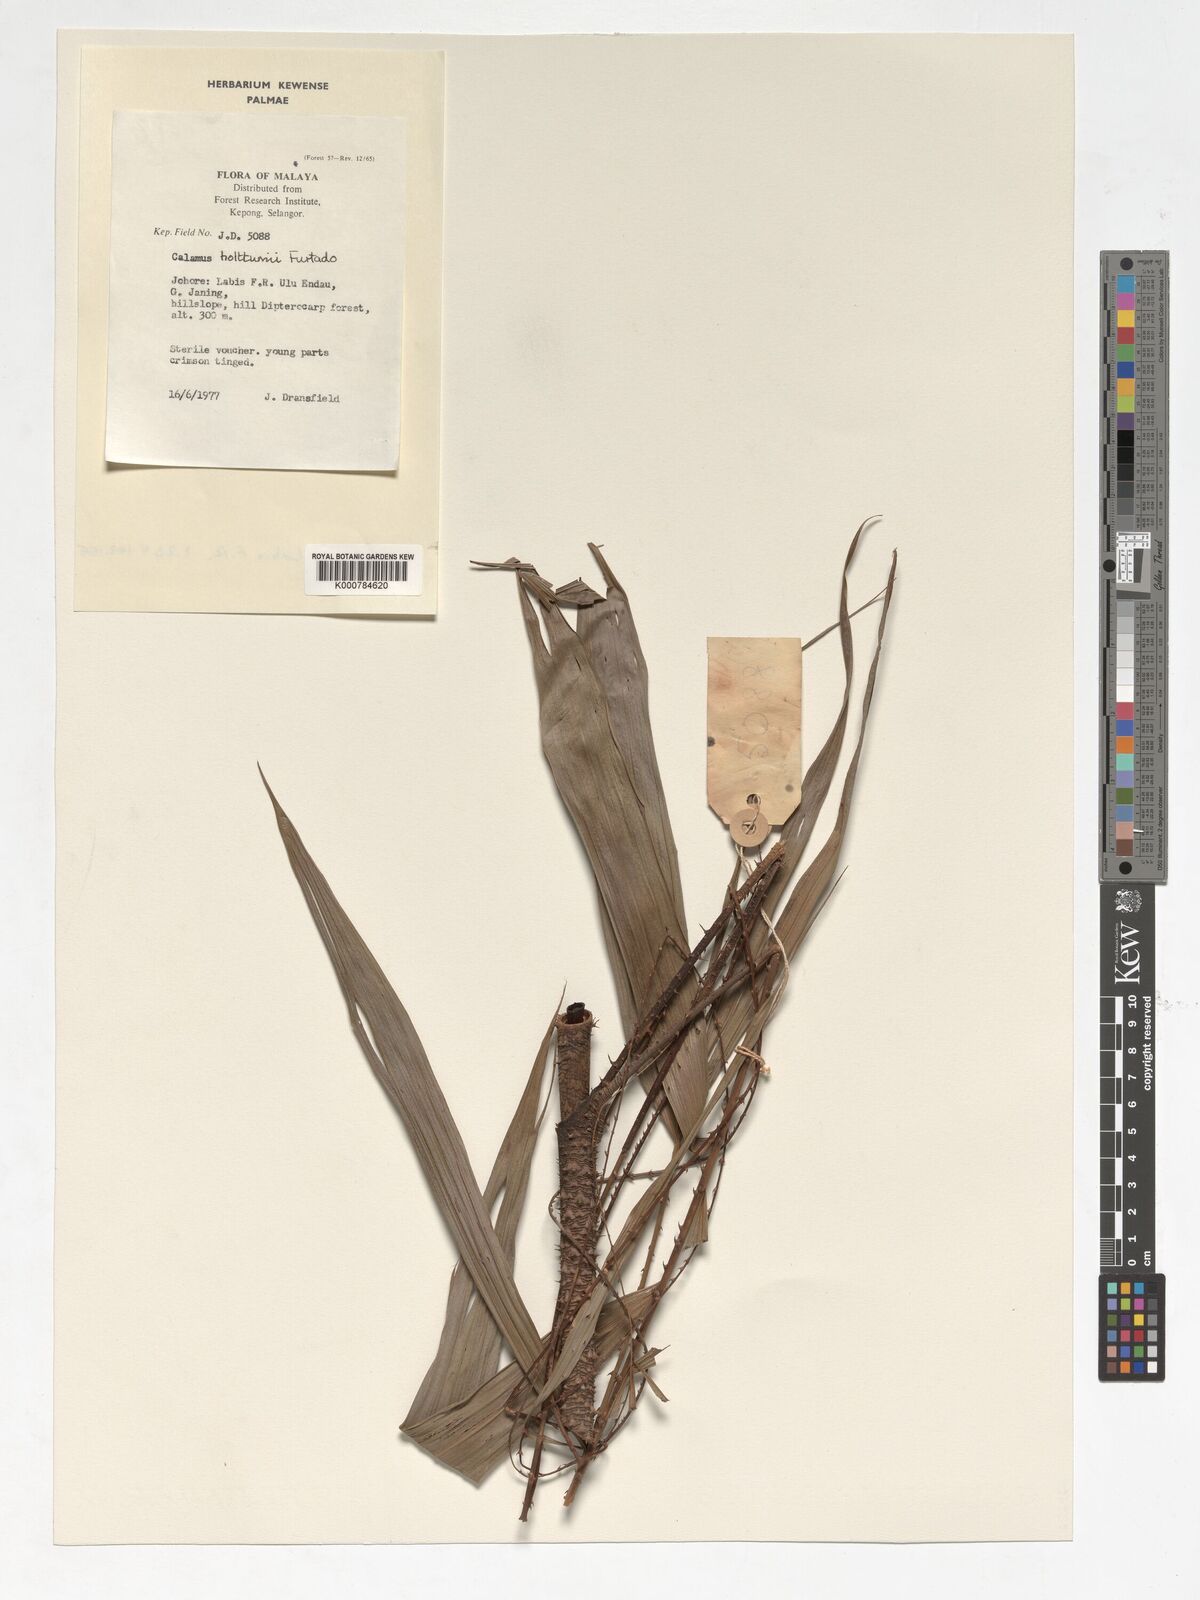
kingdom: Plantae
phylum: Tracheophyta
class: Liliopsida
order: Arecales
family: Arecaceae
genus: Calamus
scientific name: Calamus holttumii
